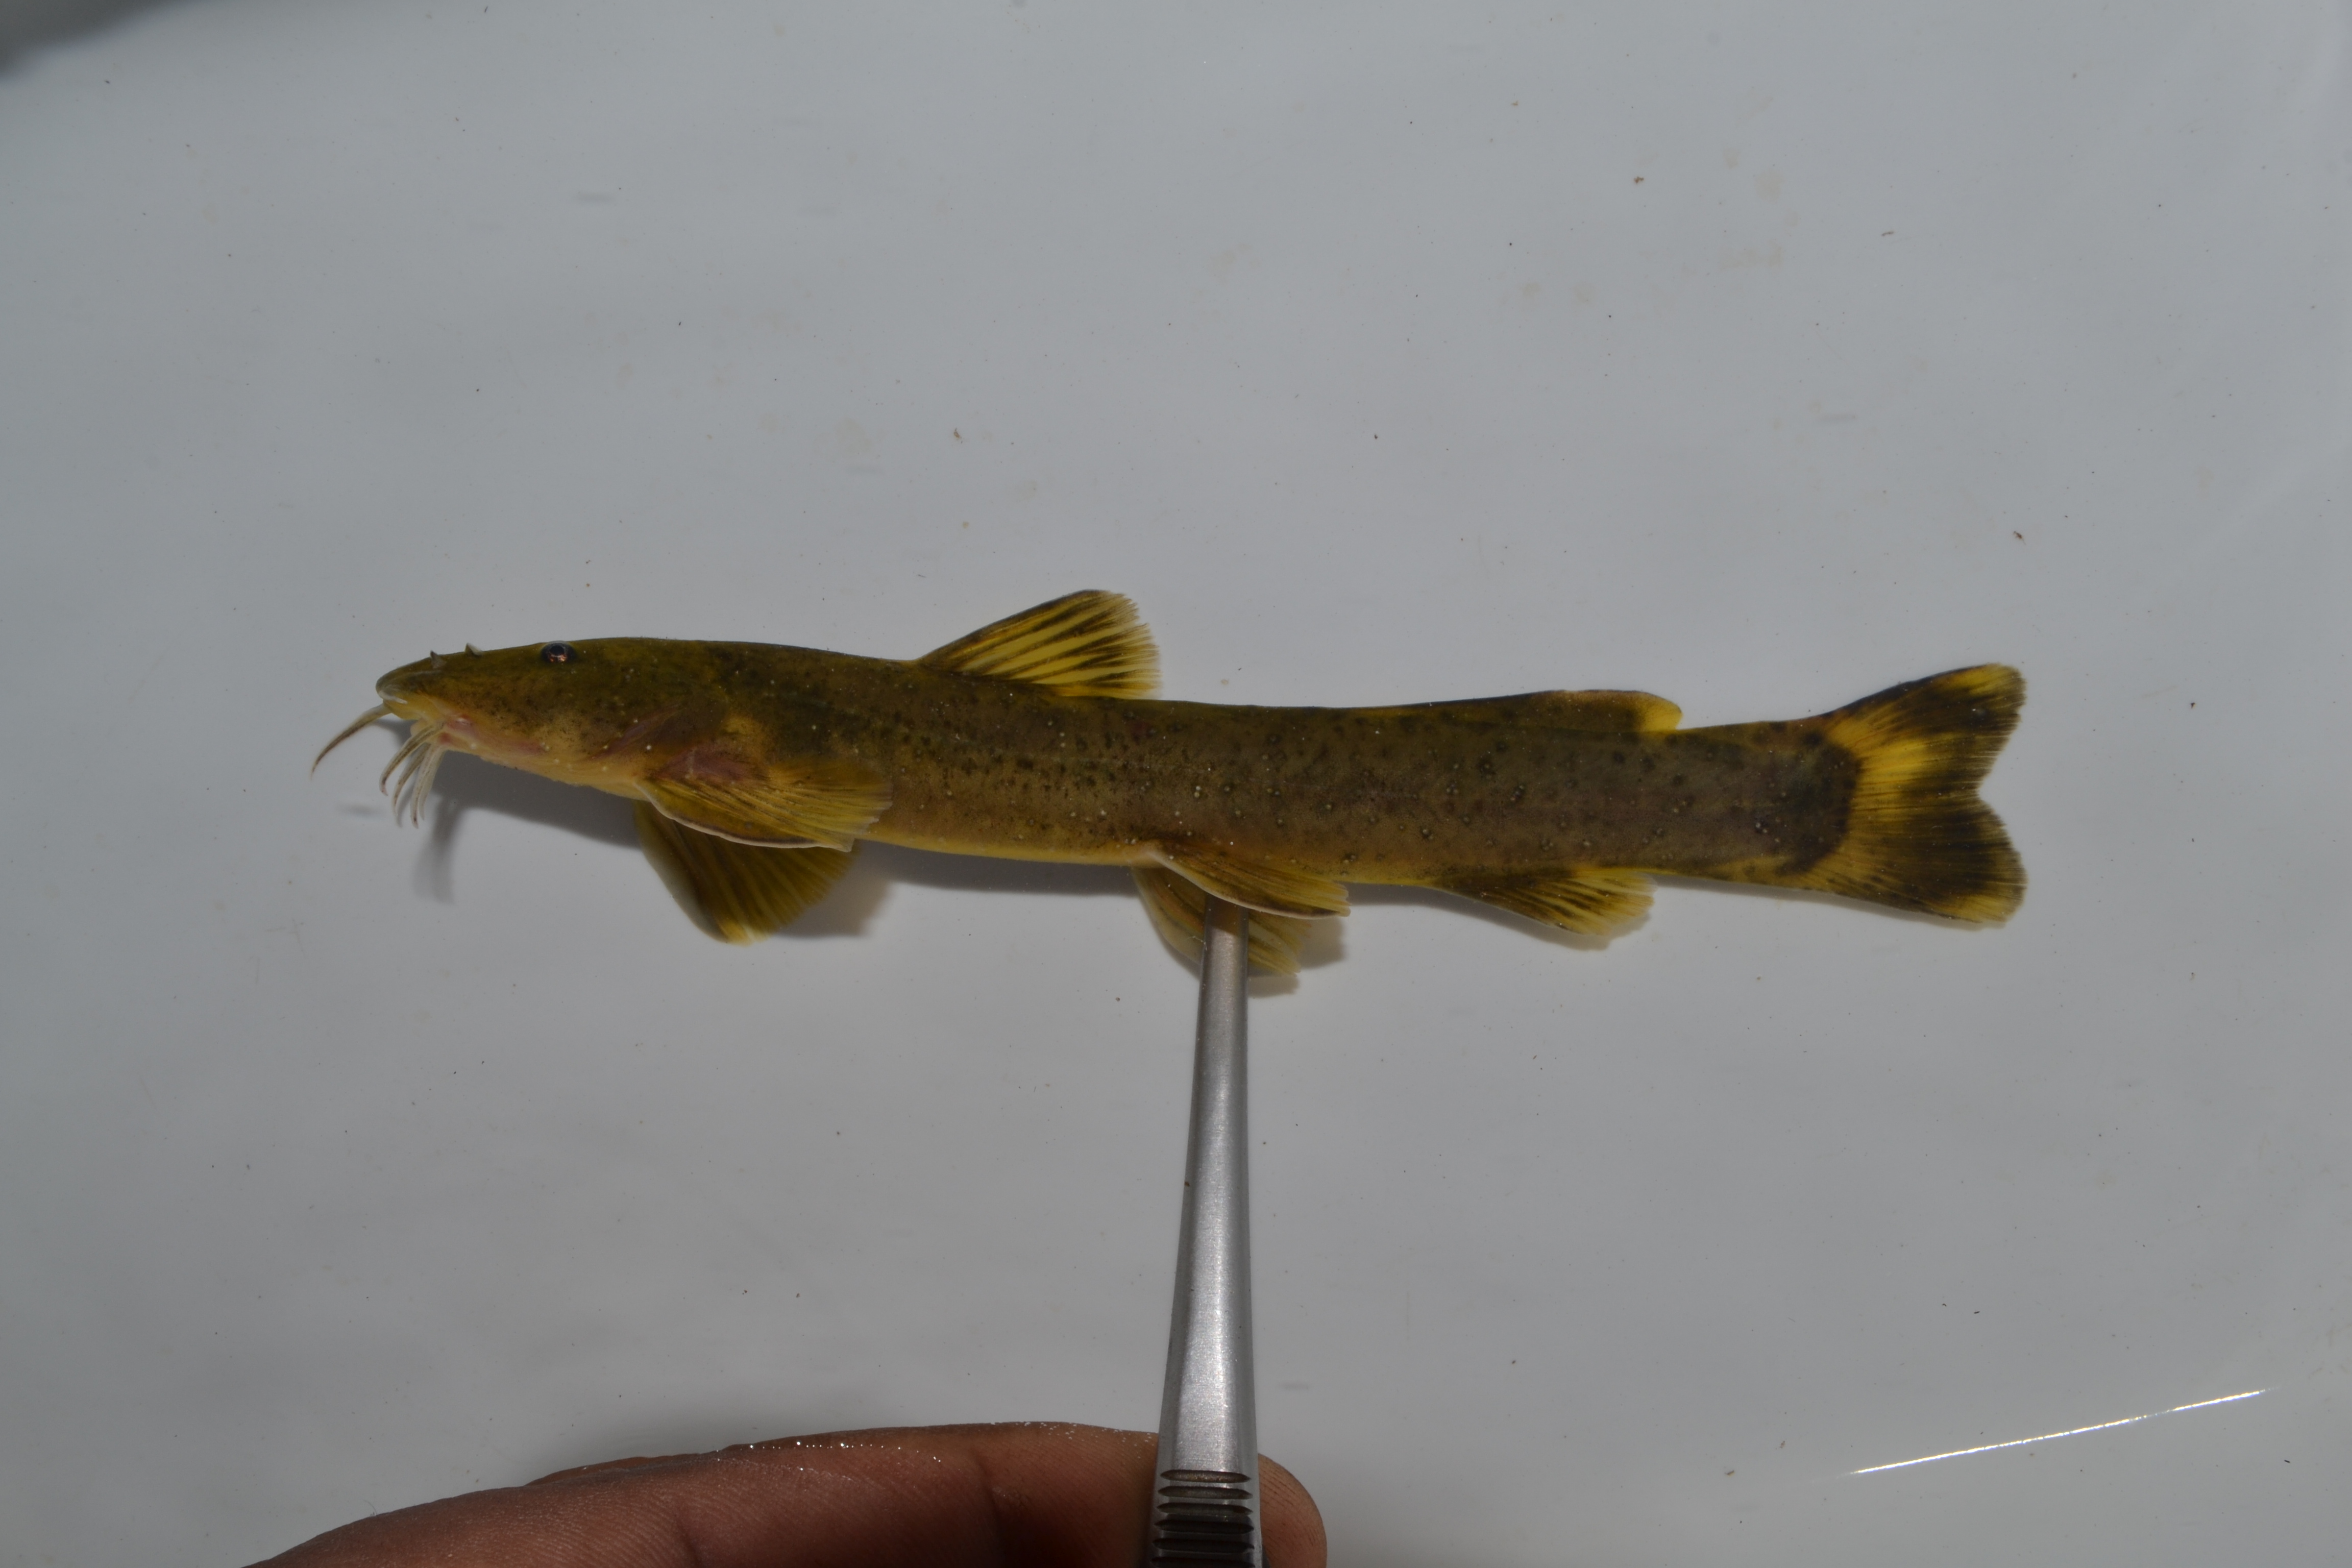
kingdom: Animalia
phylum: Chordata
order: Siluriformes
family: Amphiliidae
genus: Amphilius
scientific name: Amphilius uranoscopus
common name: Stargazer mountain catfish
